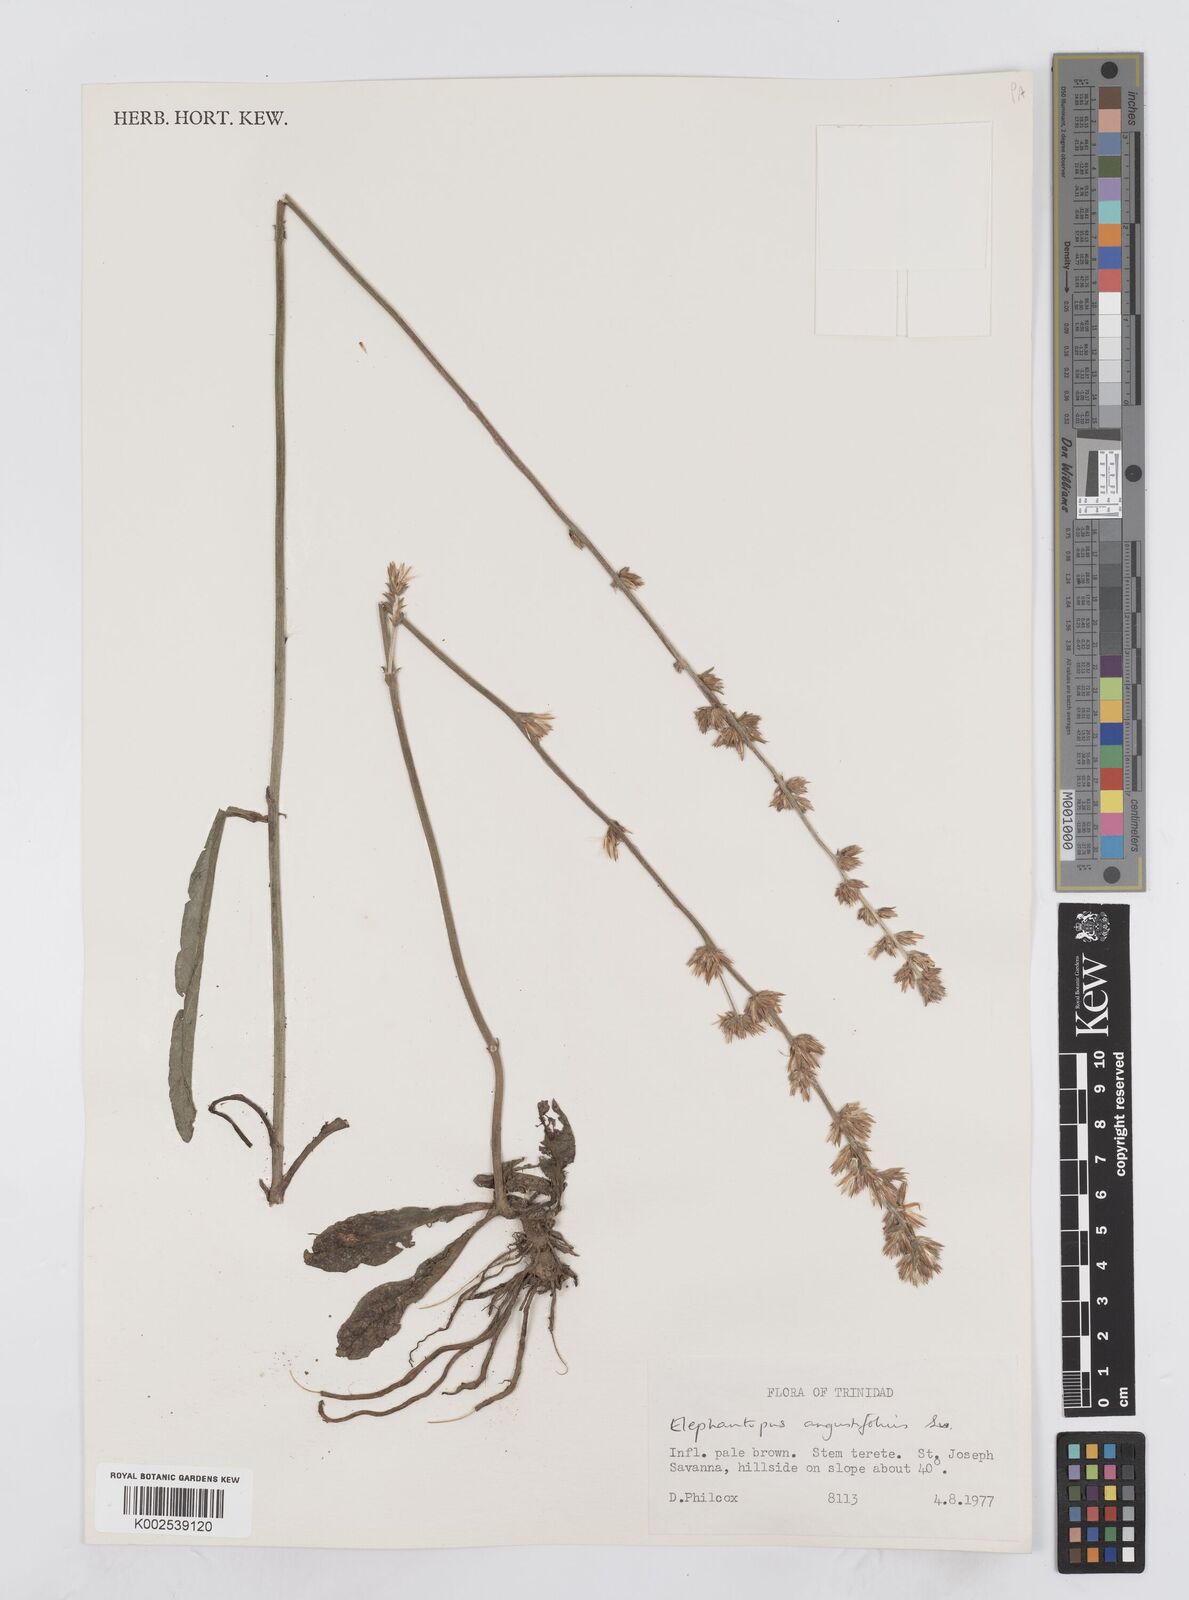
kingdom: Plantae
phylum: Tracheophyta
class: Magnoliopsida
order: Asterales
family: Asteraceae
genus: Orthopappus
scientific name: Orthopappus angustifolius
